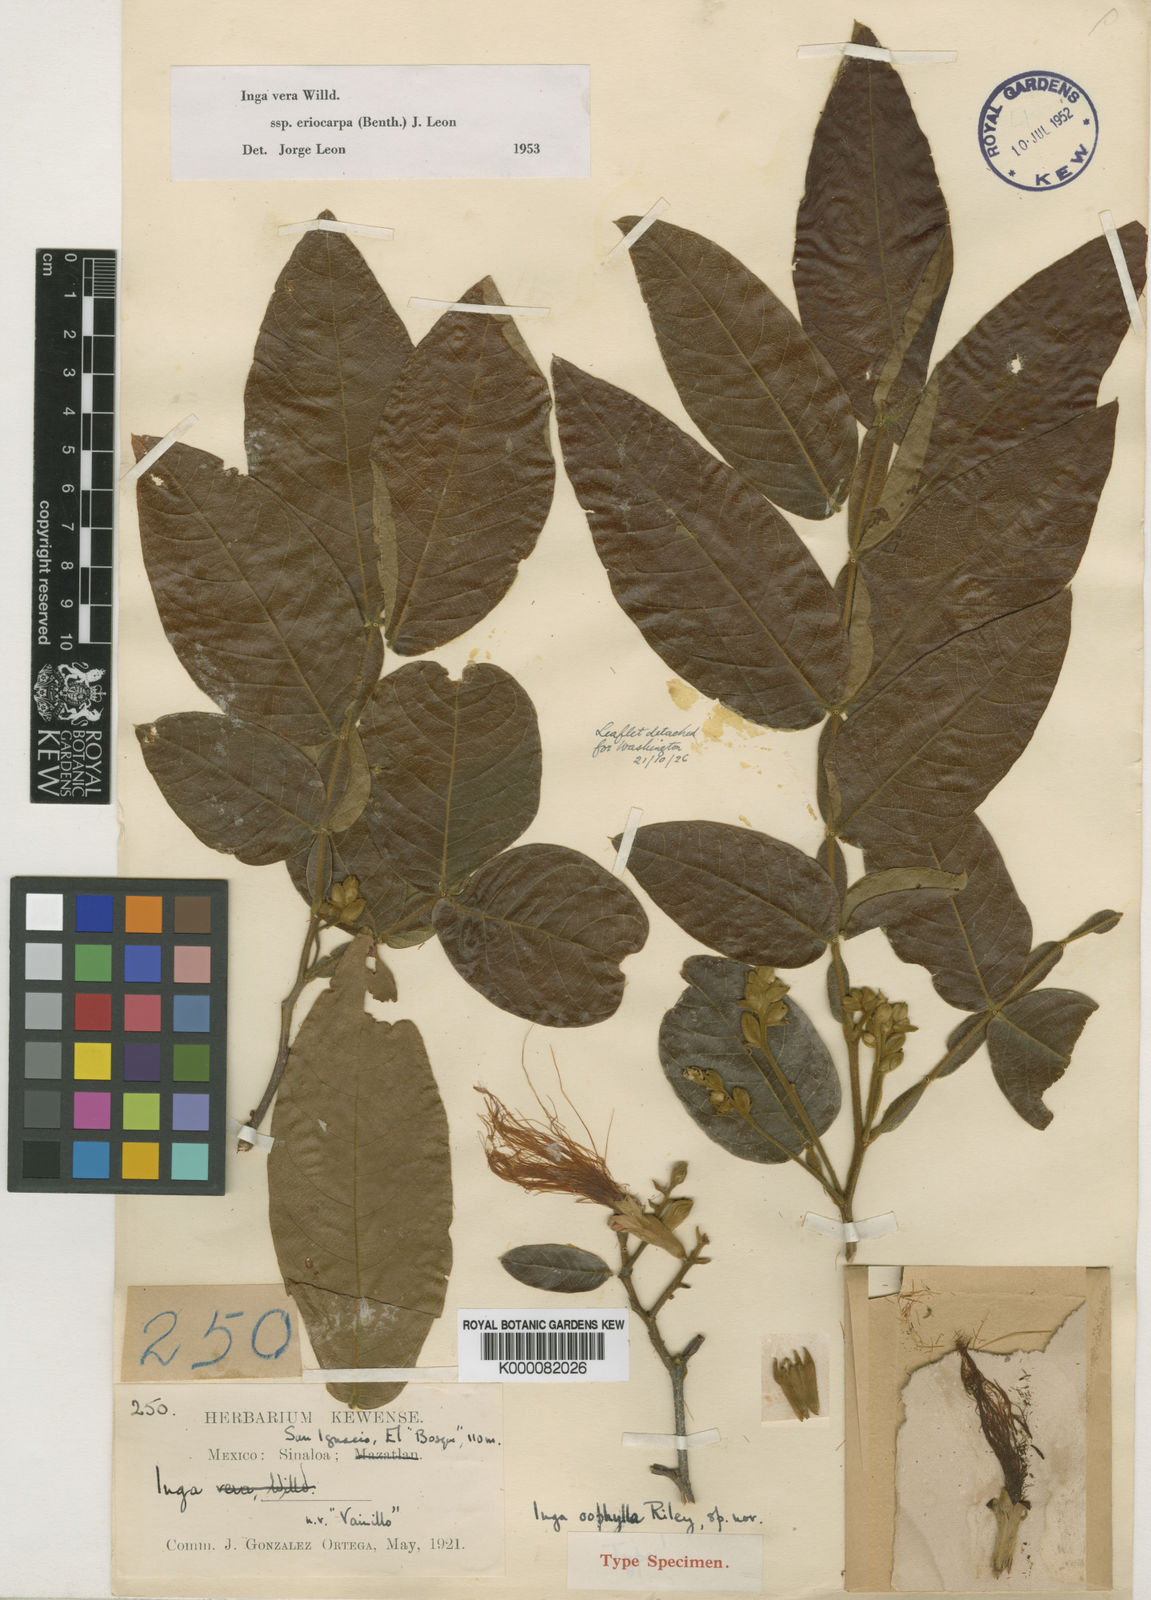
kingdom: Plantae
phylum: Tracheophyta
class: Magnoliopsida
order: Fabales
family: Fabaceae
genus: Inga
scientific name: Inga vera
